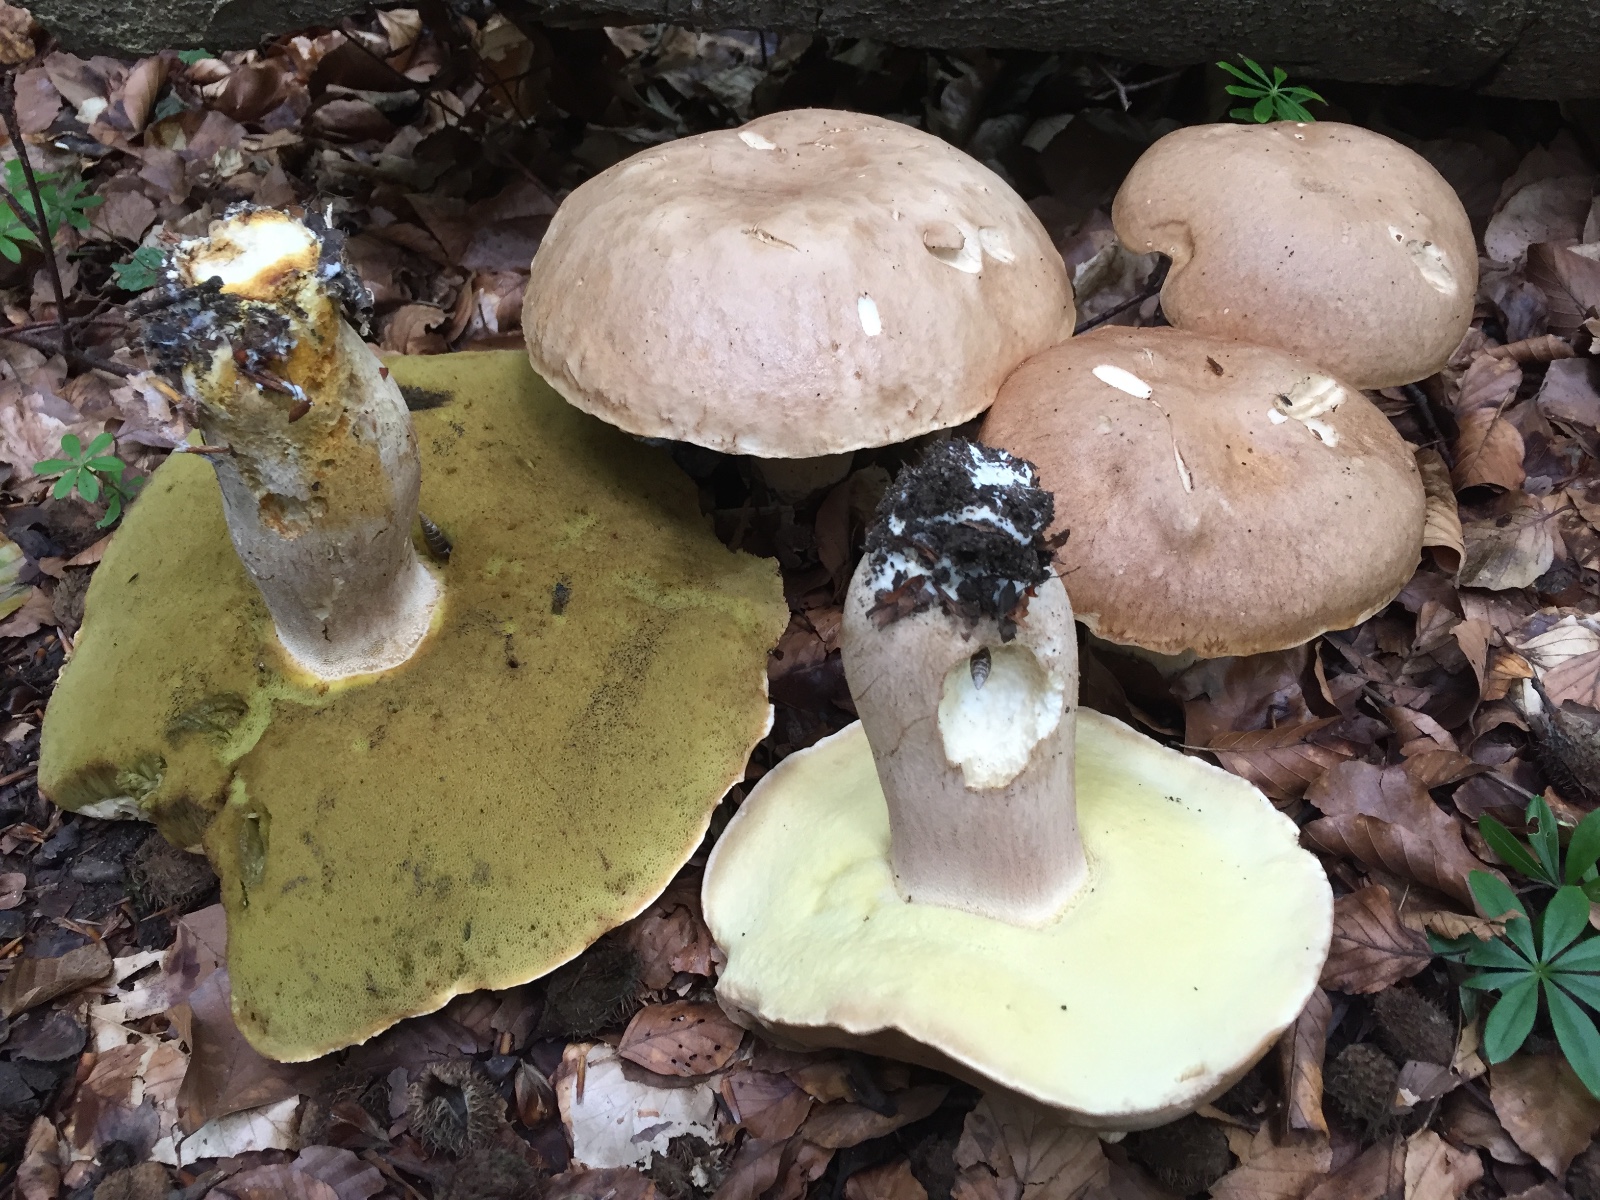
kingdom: Fungi
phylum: Basidiomycota
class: Agaricomycetes
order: Boletales
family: Boletaceae
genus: Boletus
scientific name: Boletus reticulatus
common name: sommer-rørhat
